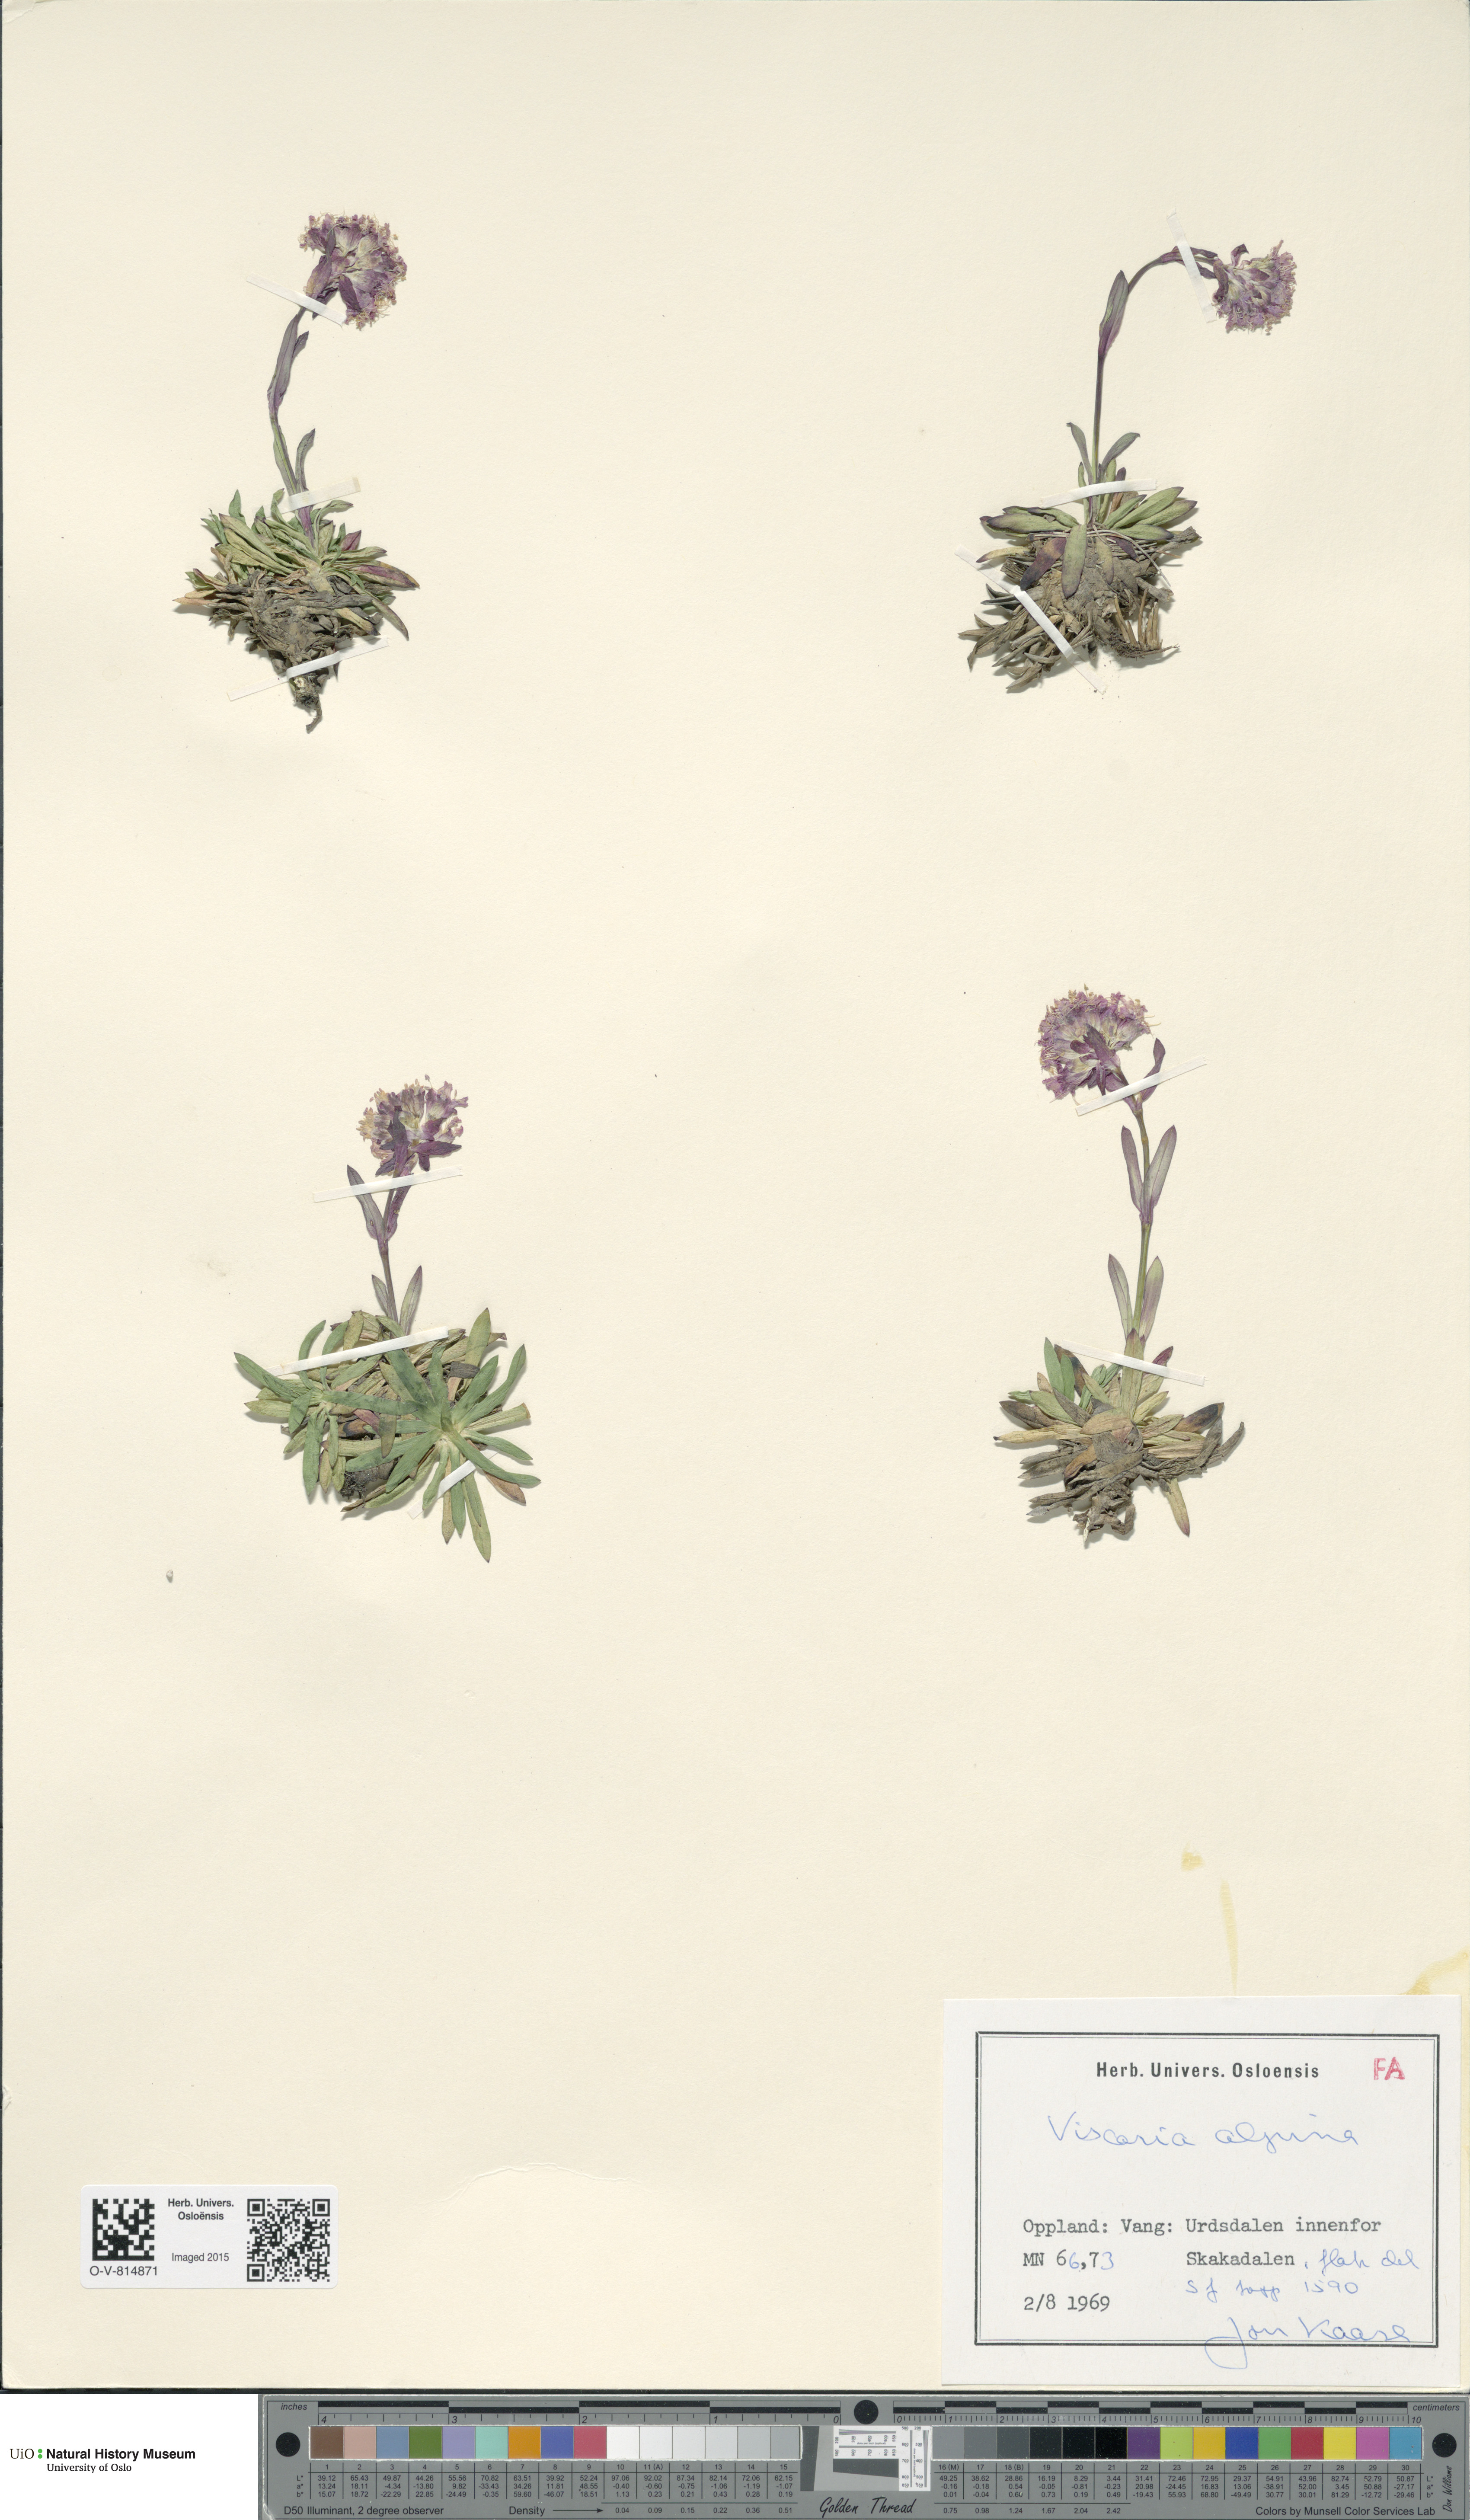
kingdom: Plantae
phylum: Tracheophyta
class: Magnoliopsida
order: Caryophyllales
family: Caryophyllaceae
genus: Viscaria
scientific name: Viscaria alpina
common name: Alpine campion
